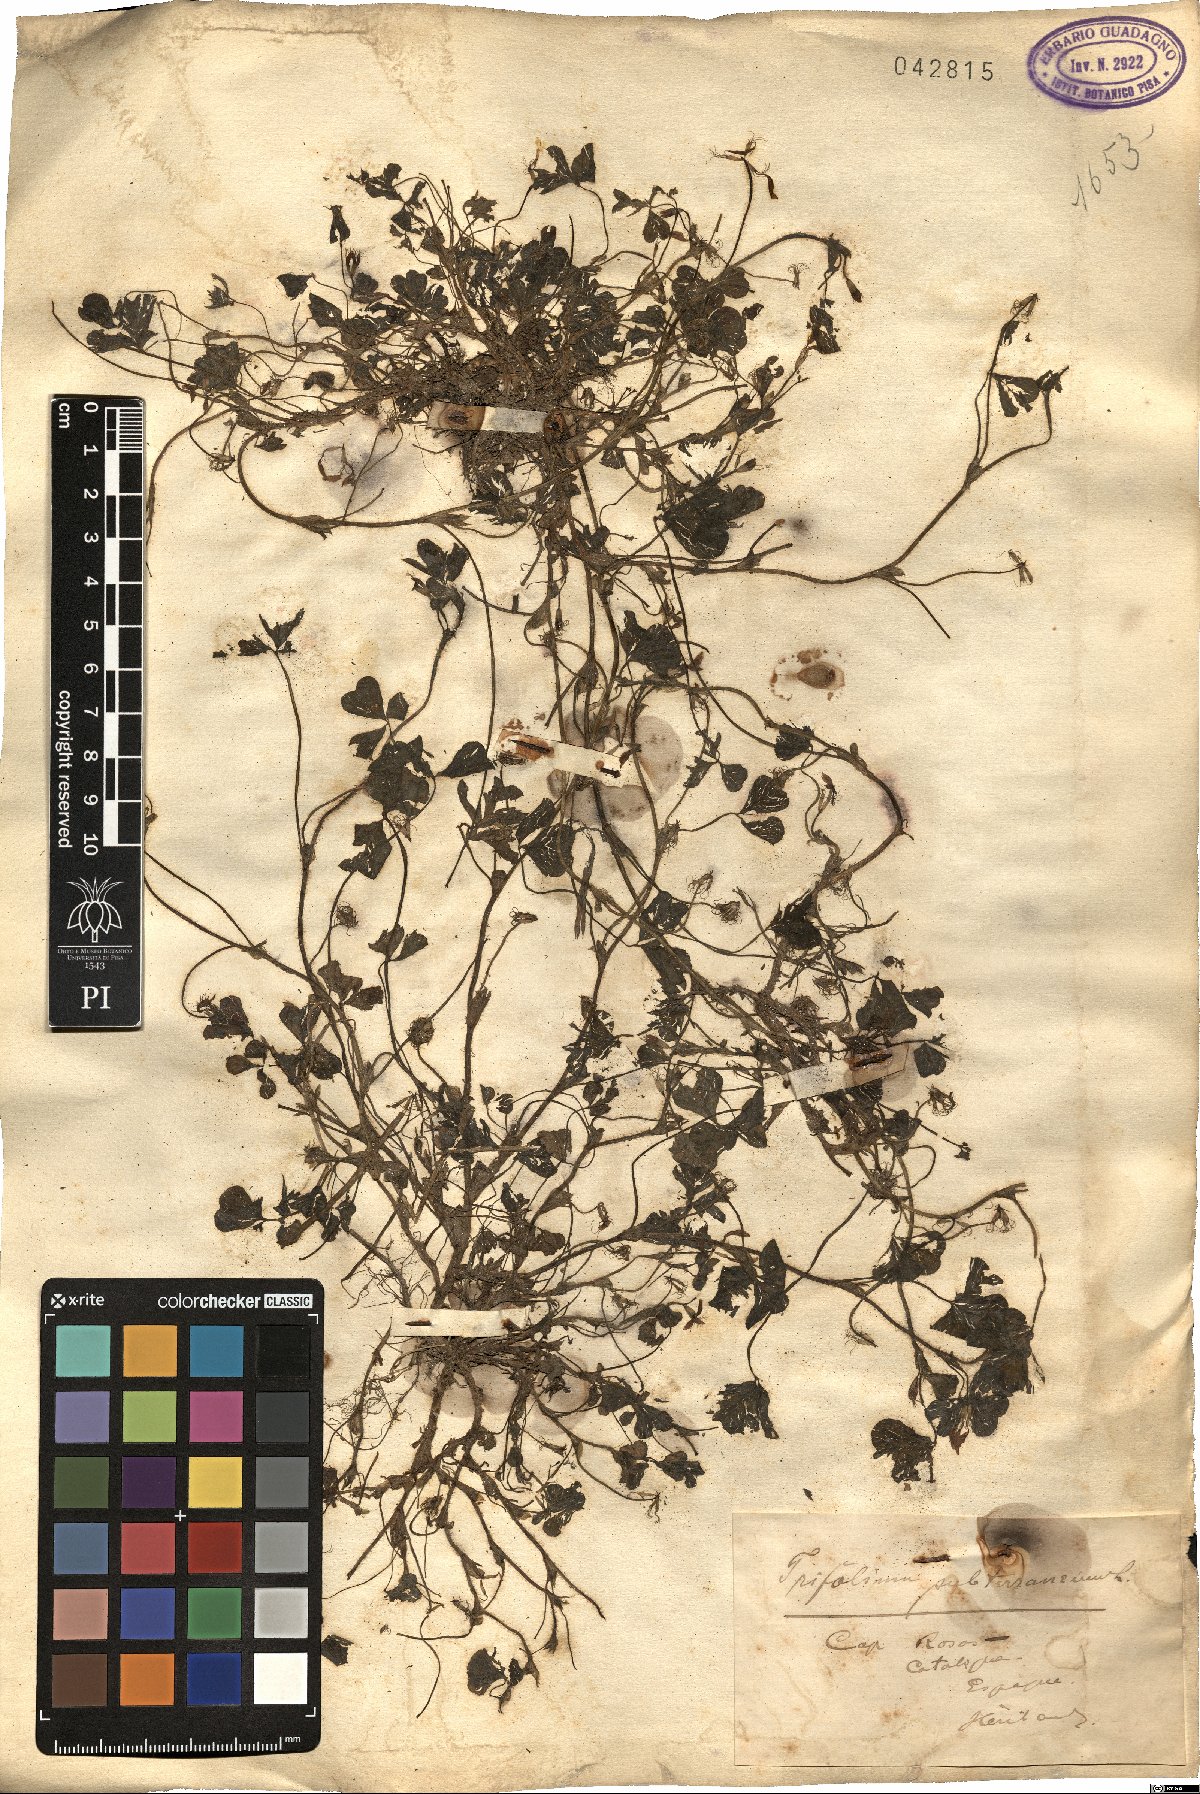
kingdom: Plantae
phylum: Tracheophyta
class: Magnoliopsida
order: Fabales
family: Fabaceae
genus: Trifolium
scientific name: Trifolium subterraneum
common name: Subterranean clover
